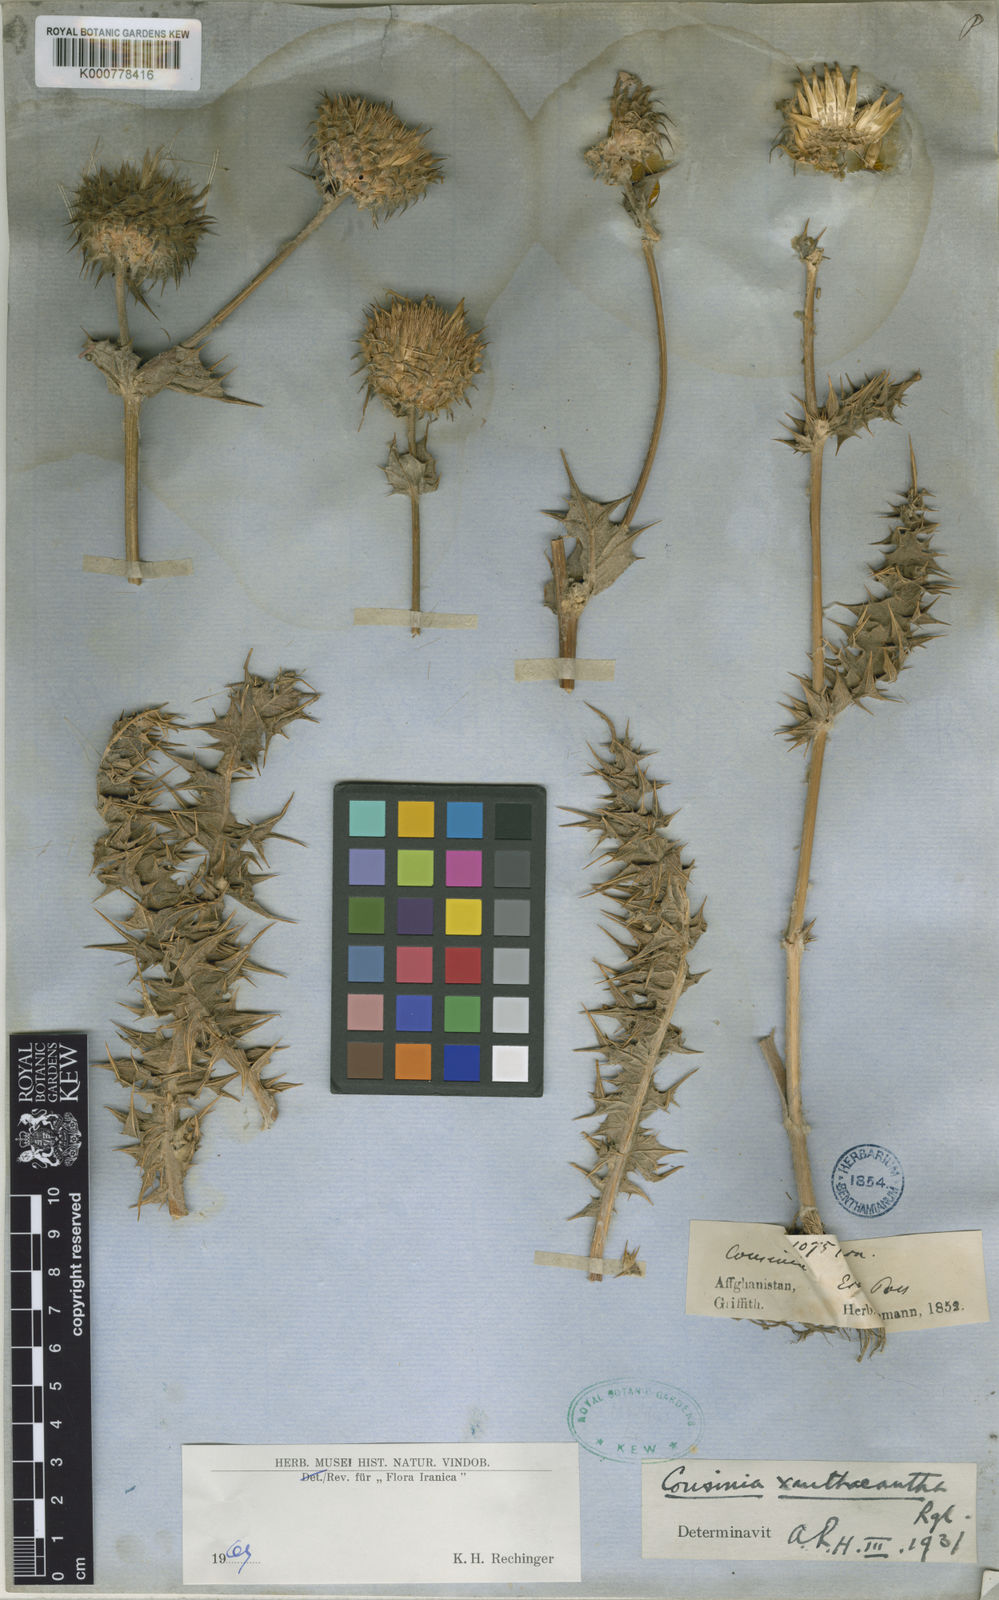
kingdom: Plantae
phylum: Tracheophyta
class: Magnoliopsida
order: Asterales
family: Asteraceae
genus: Cousinia
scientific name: Cousinia xanthacantha
